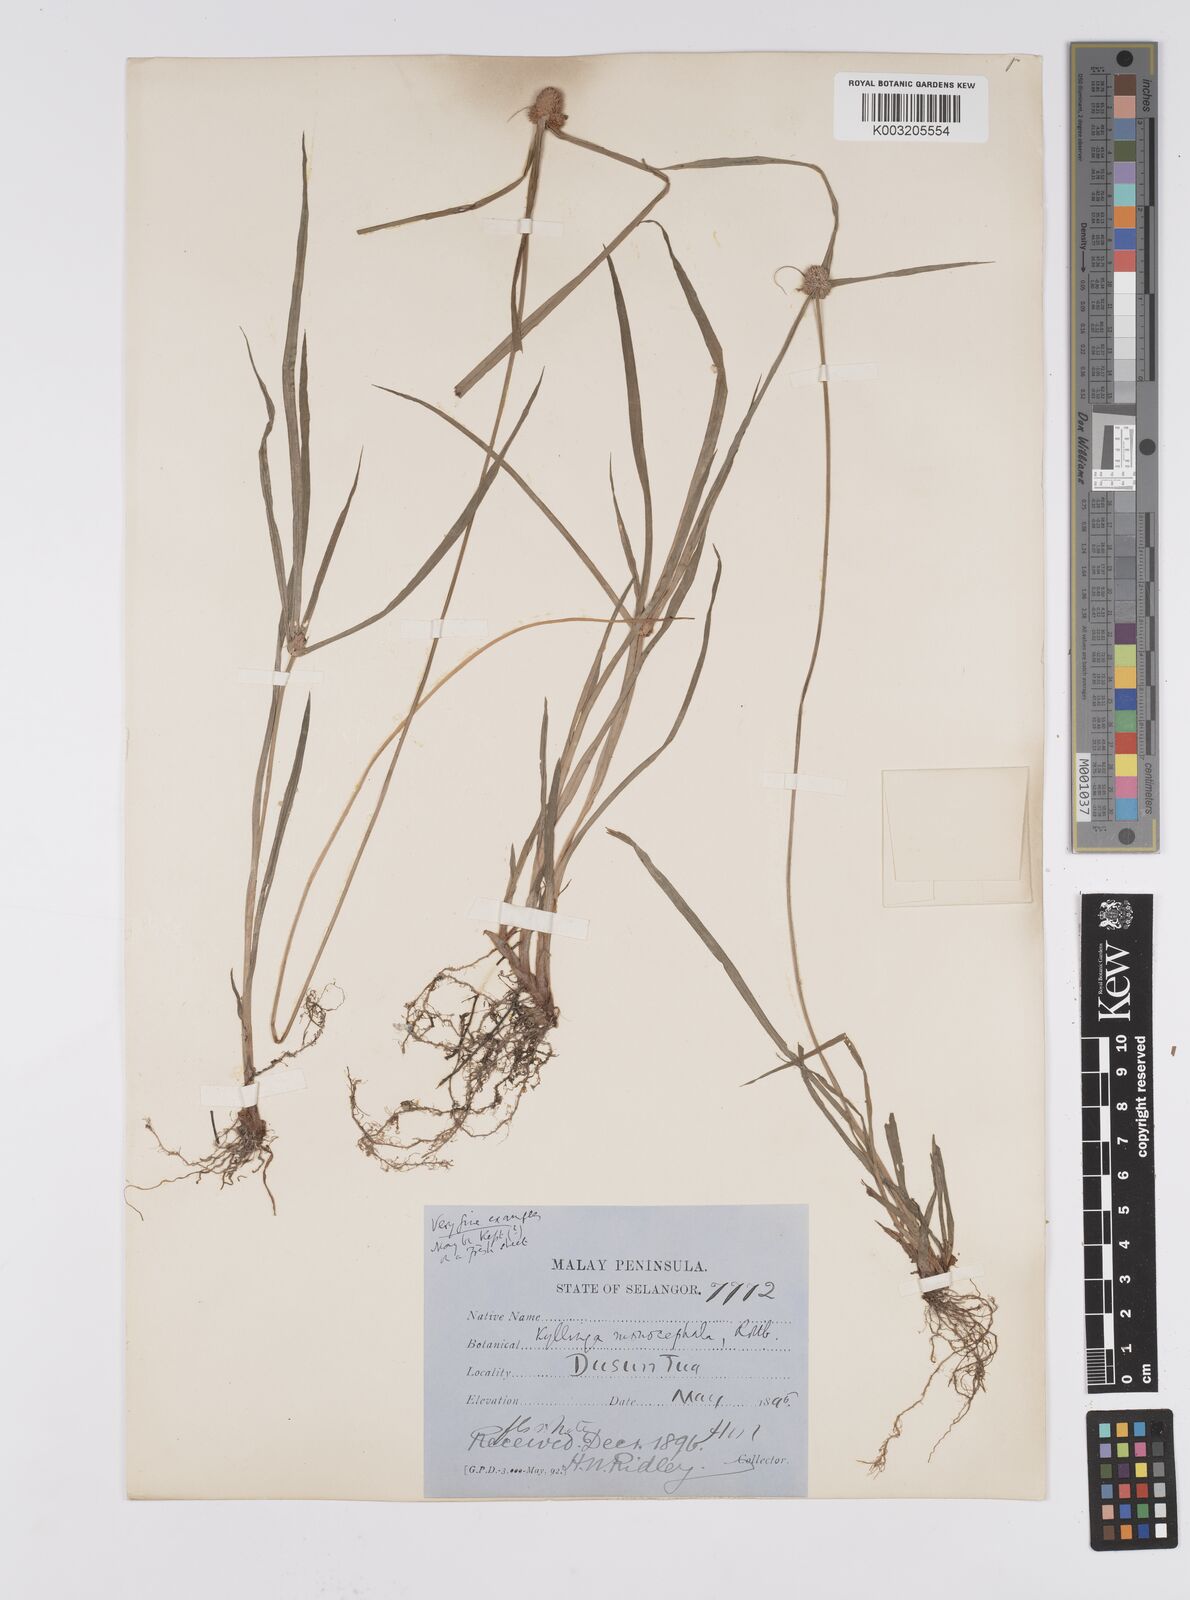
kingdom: Plantae
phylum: Tracheophyta
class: Liliopsida
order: Poales
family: Cyperaceae
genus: Cyperus
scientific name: Cyperus nemoralis
